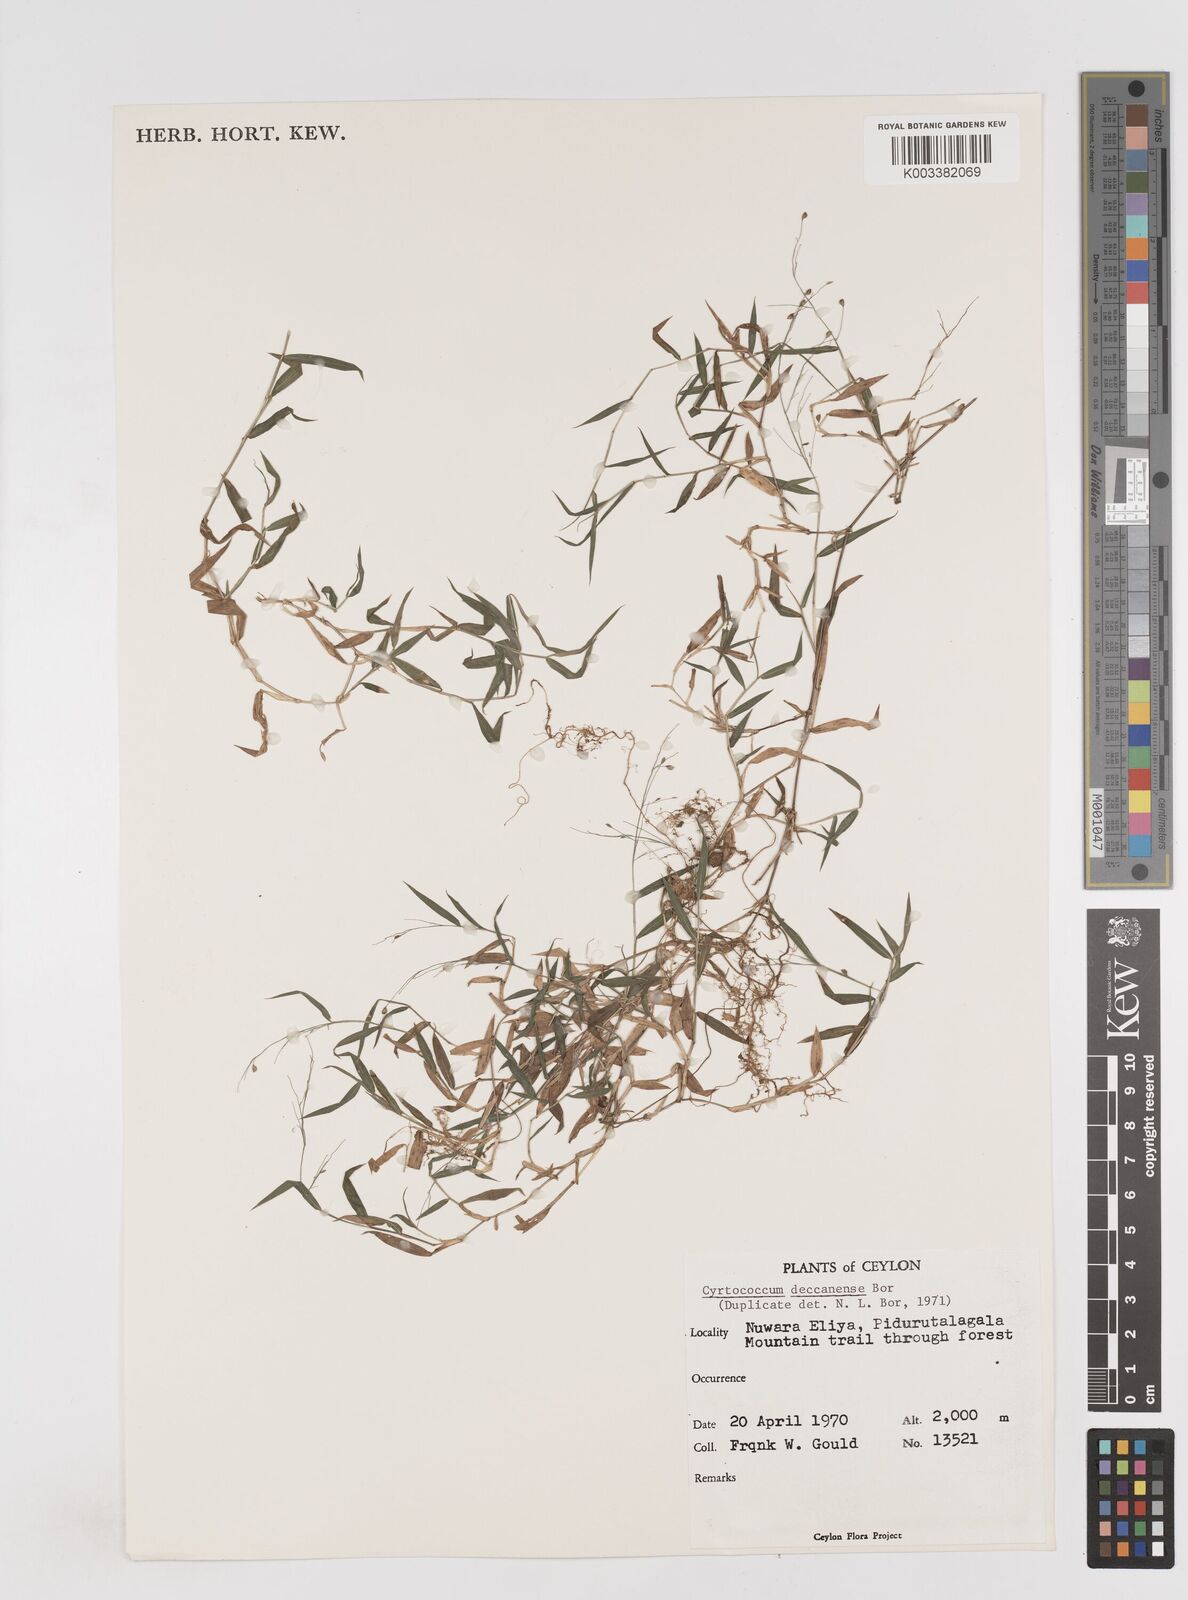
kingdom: Plantae
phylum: Tracheophyta
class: Liliopsida
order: Poales
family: Poaceae
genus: Cyrtococcum
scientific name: Cyrtococcum deccanense
